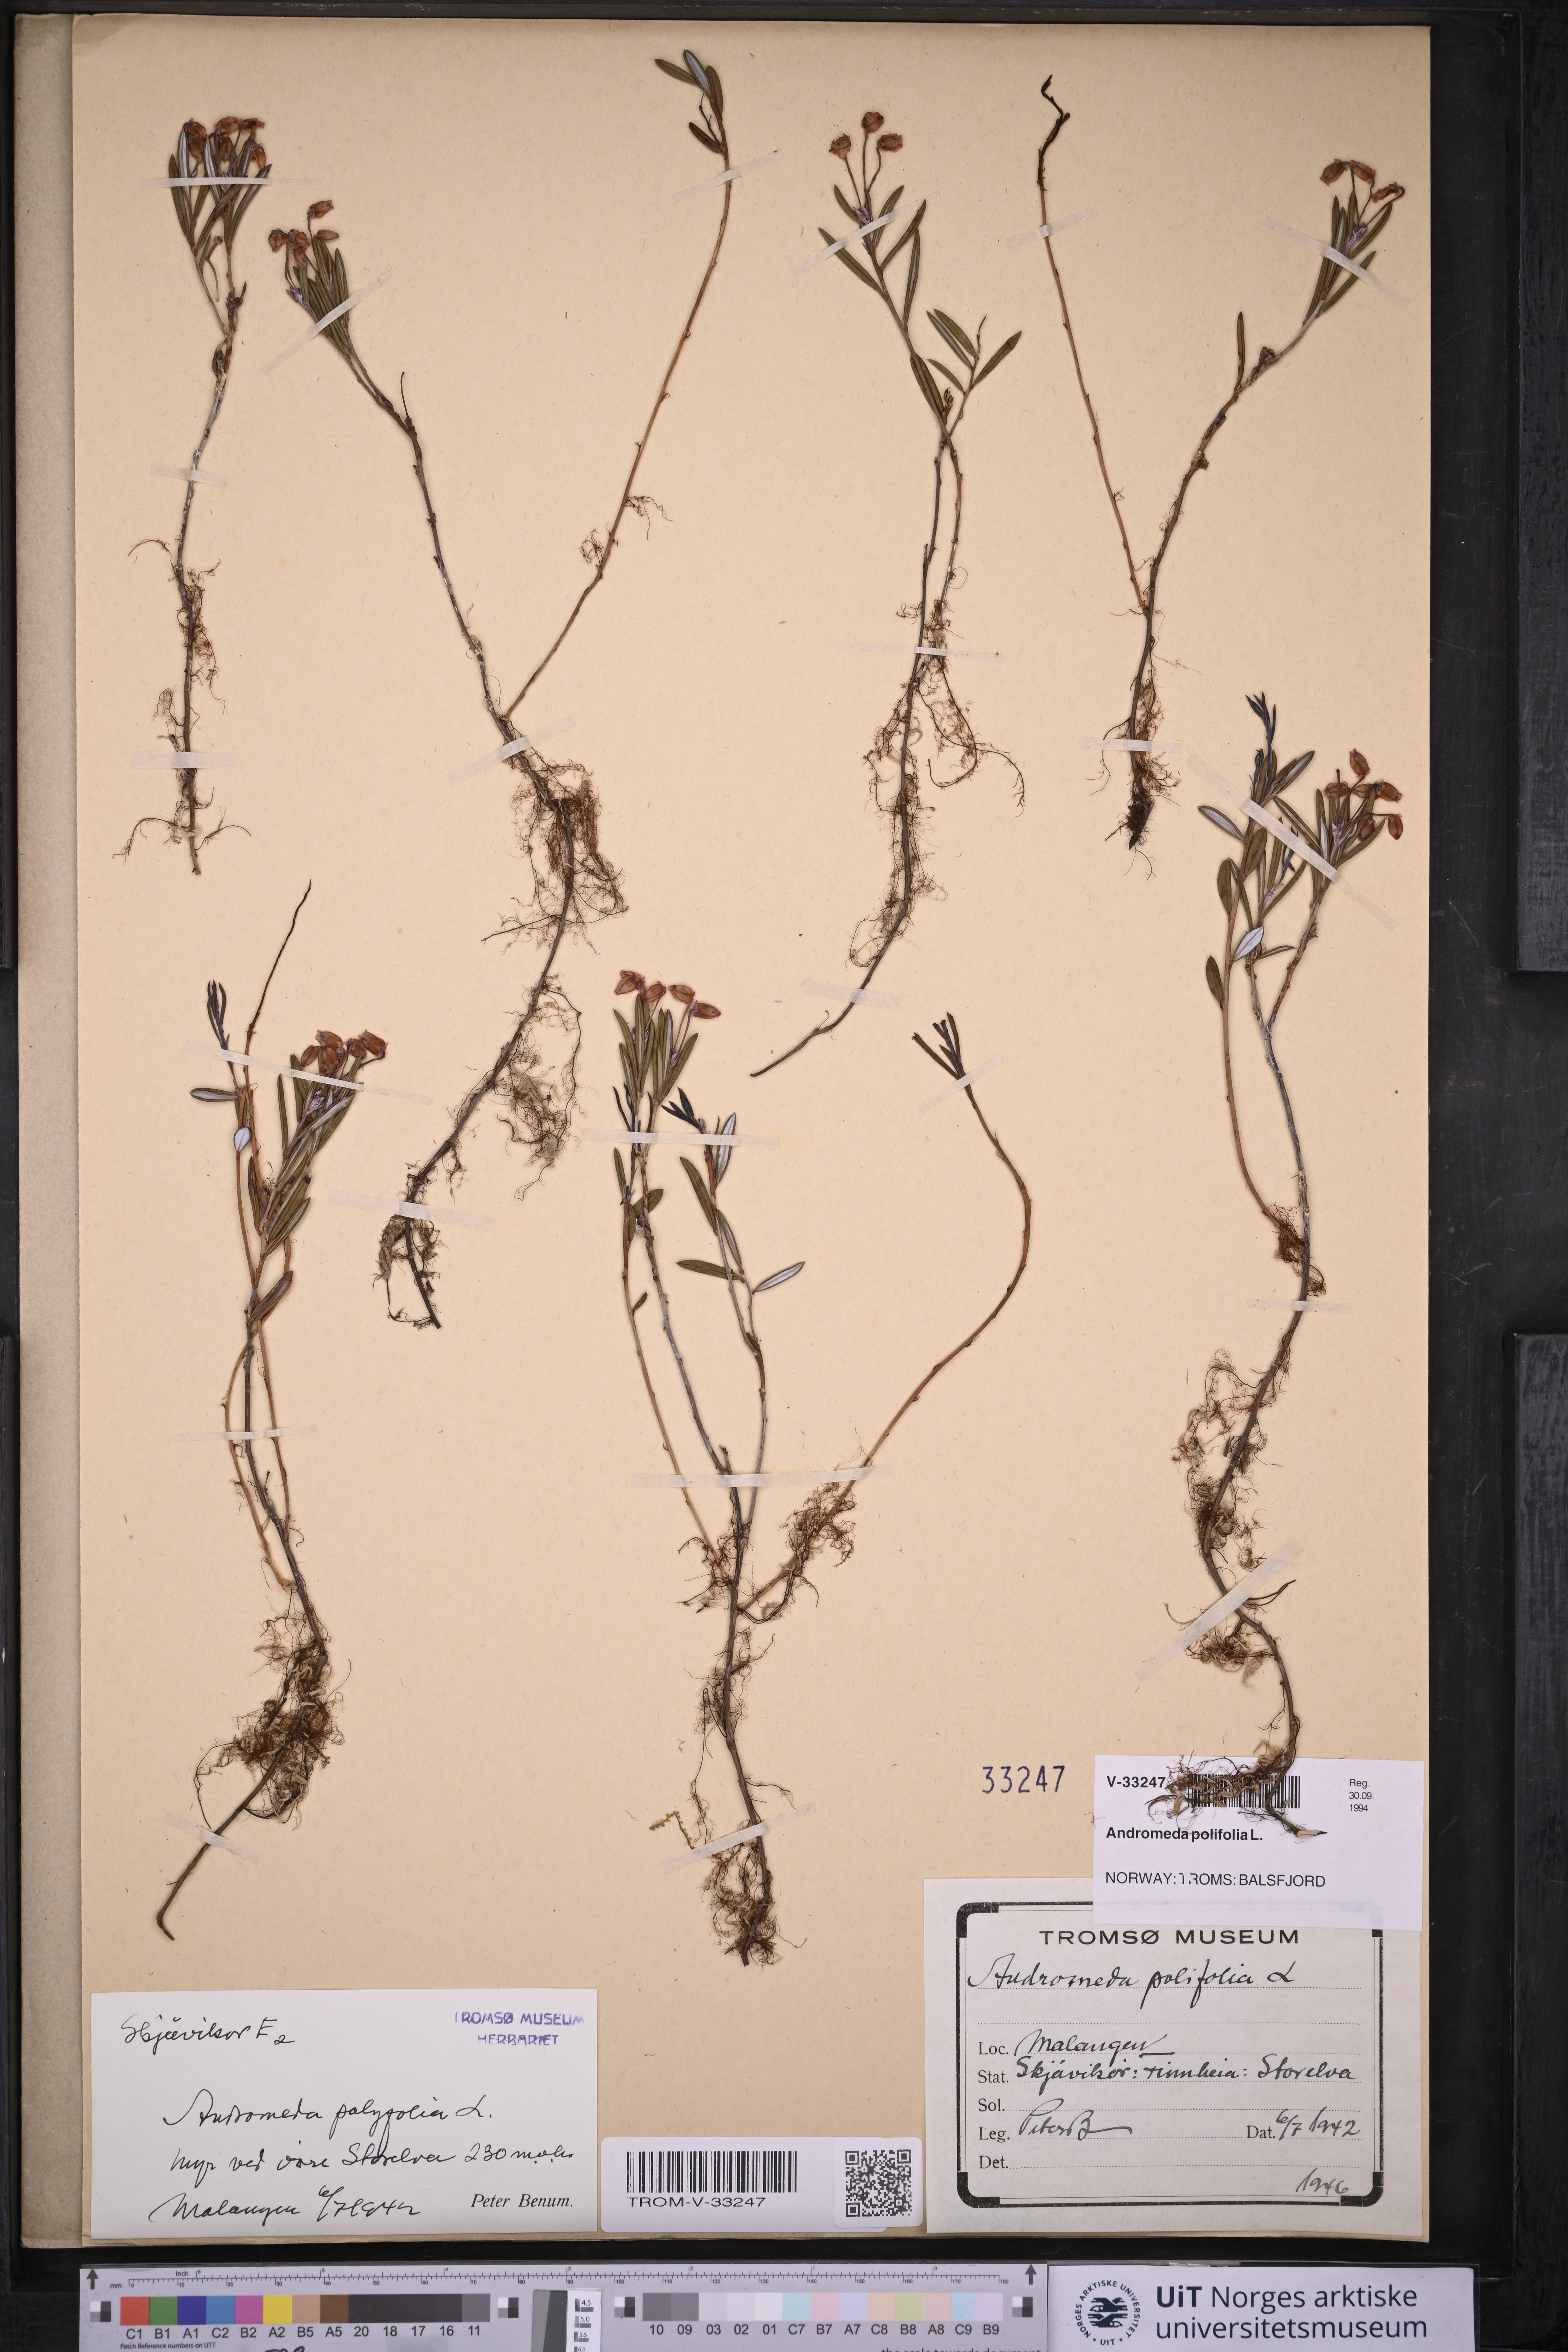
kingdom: Plantae
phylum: Tracheophyta
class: Magnoliopsida
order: Ericales
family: Ericaceae
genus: Andromeda
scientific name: Andromeda polifolia
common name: Bog-rosemary
